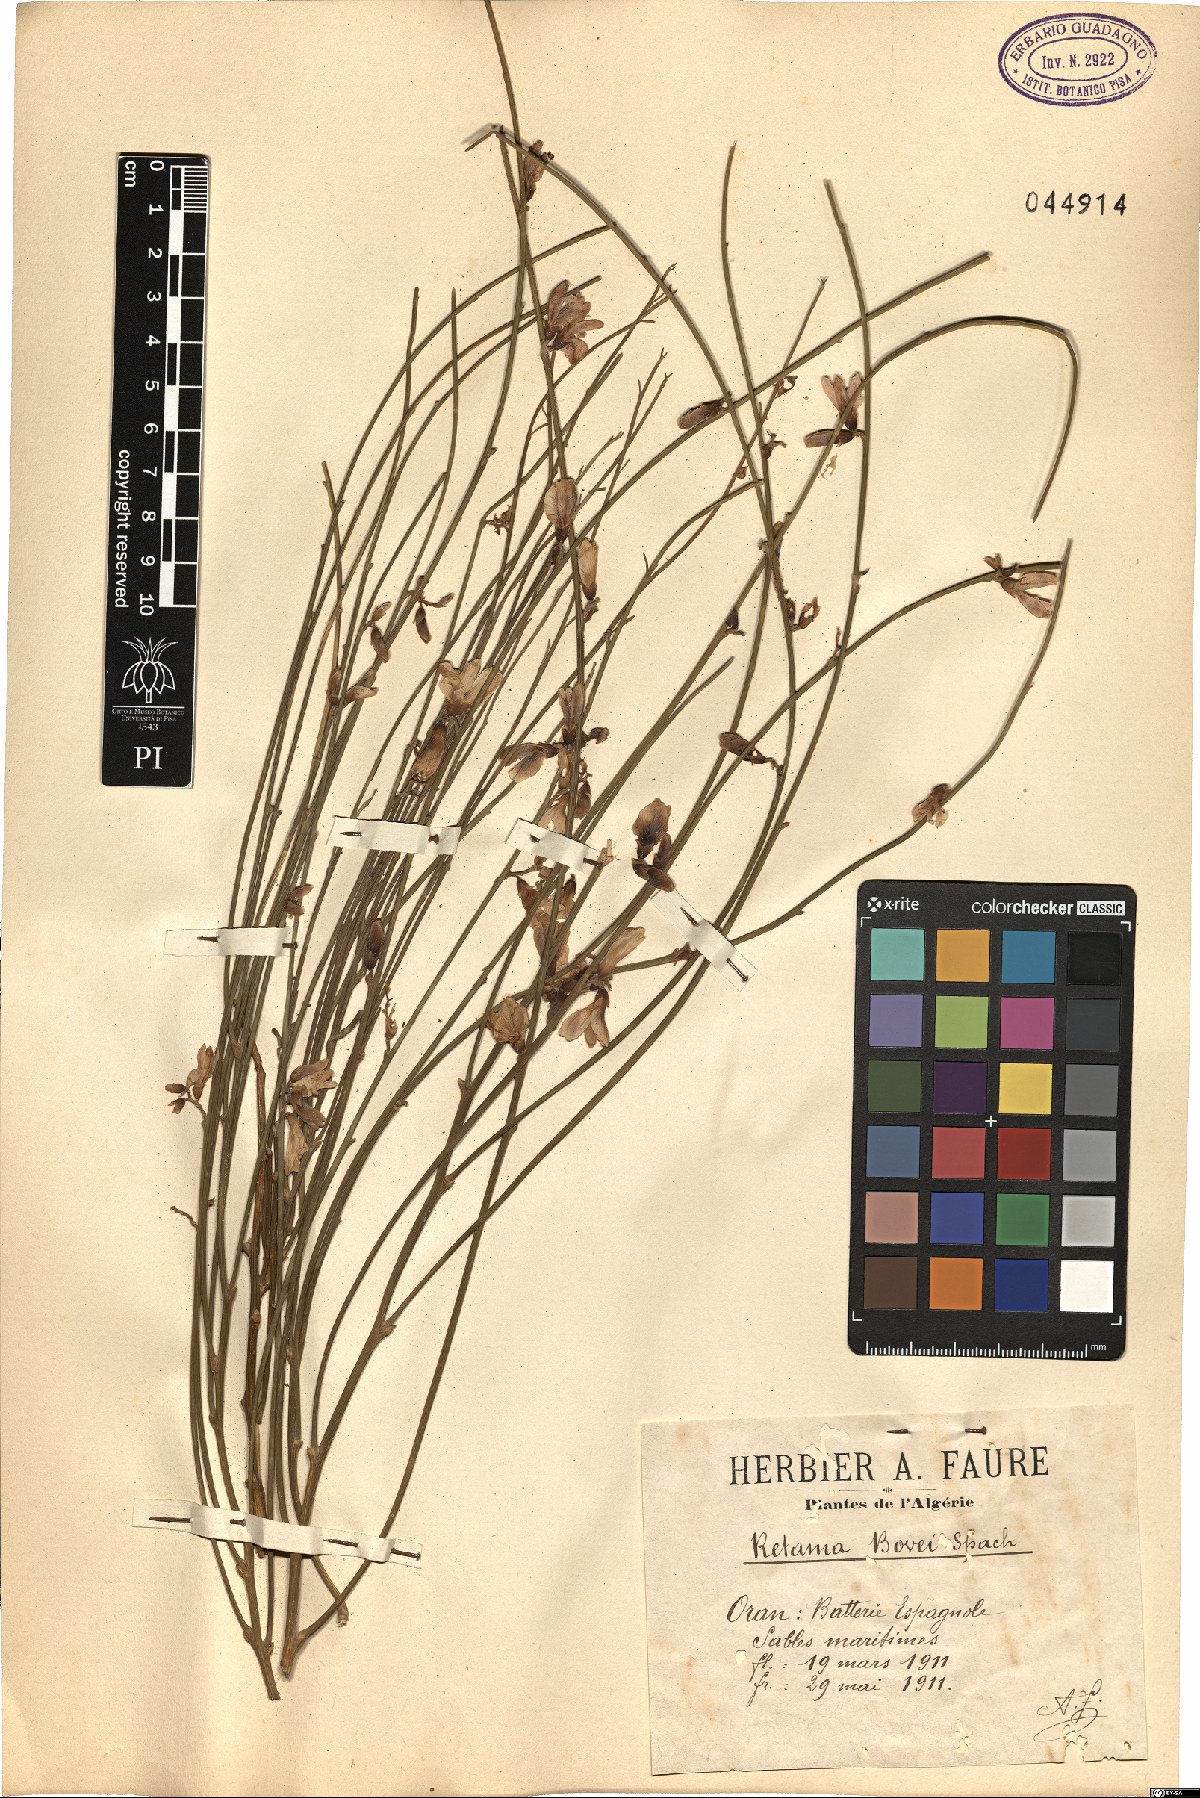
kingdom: Plantae
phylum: Tracheophyta
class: Magnoliopsida
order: Fabales
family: Fabaceae
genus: Retama
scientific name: Retama raetam
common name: Retem
